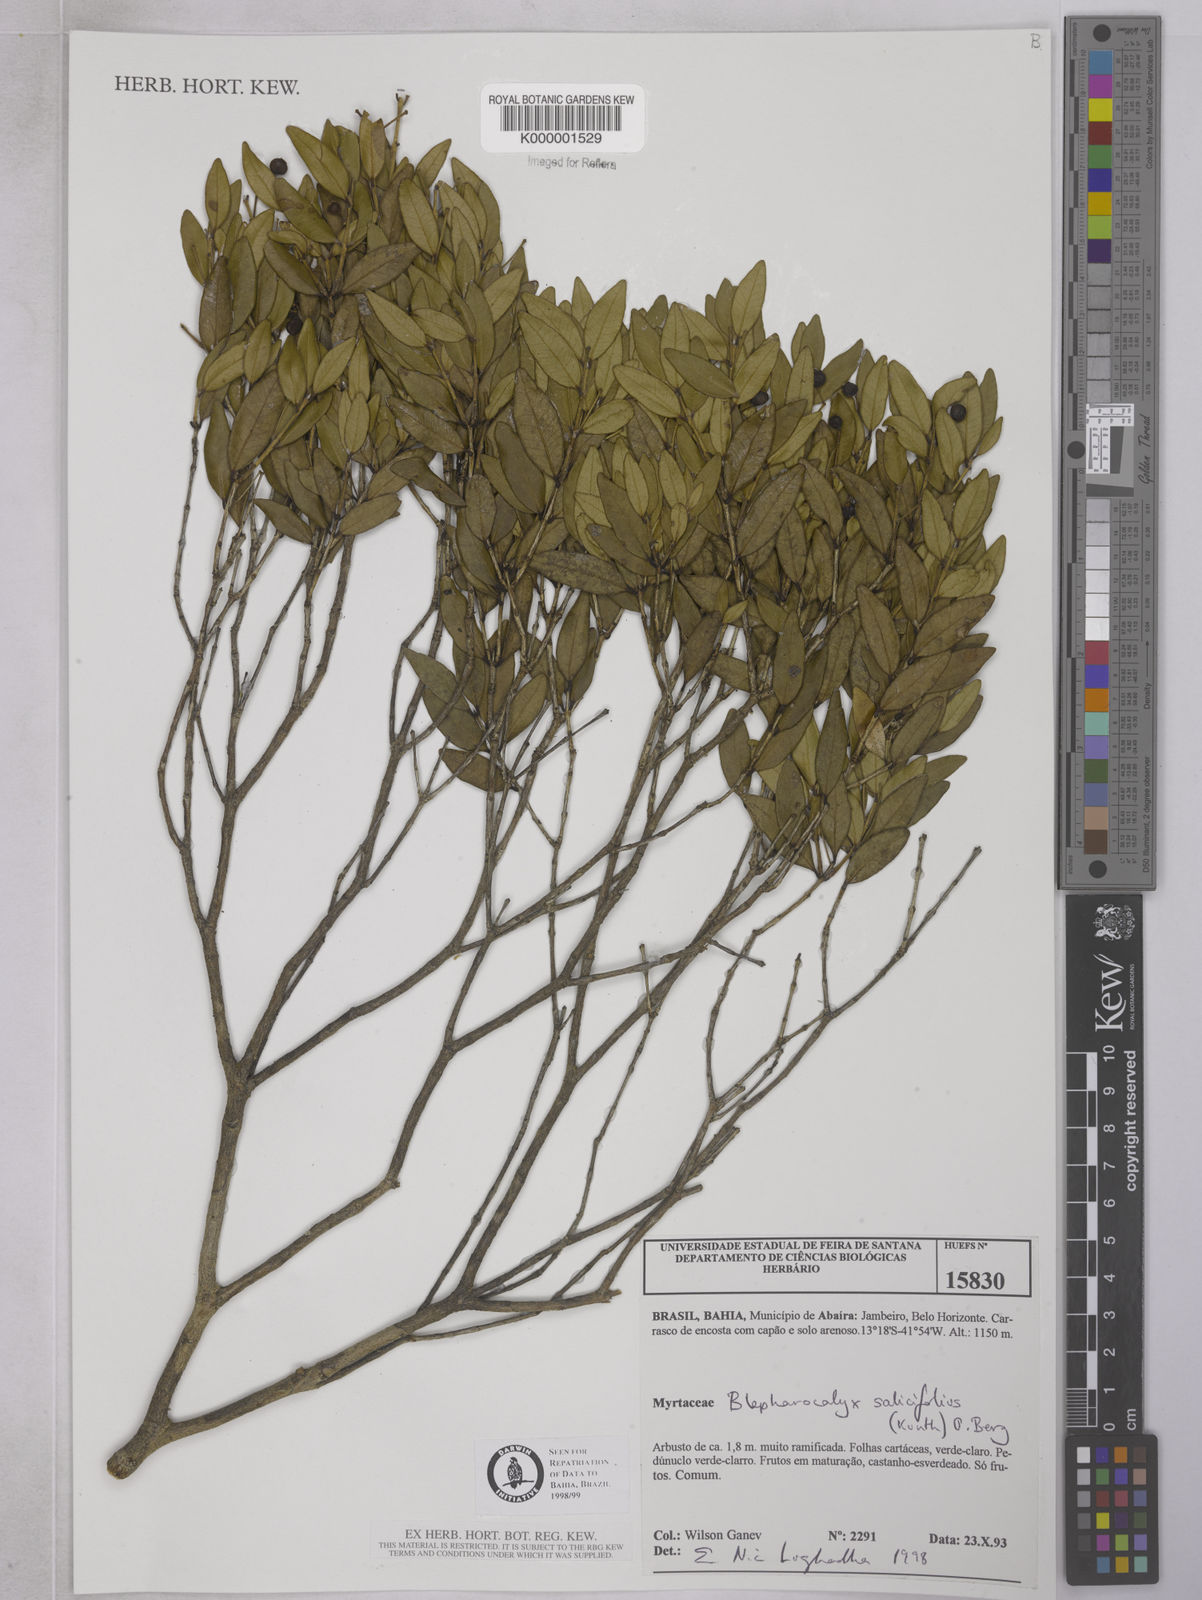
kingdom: Plantae
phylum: Tracheophyta
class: Magnoliopsida
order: Myrtales
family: Myrtaceae
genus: Blepharocalyx
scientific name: Blepharocalyx salicifolius
